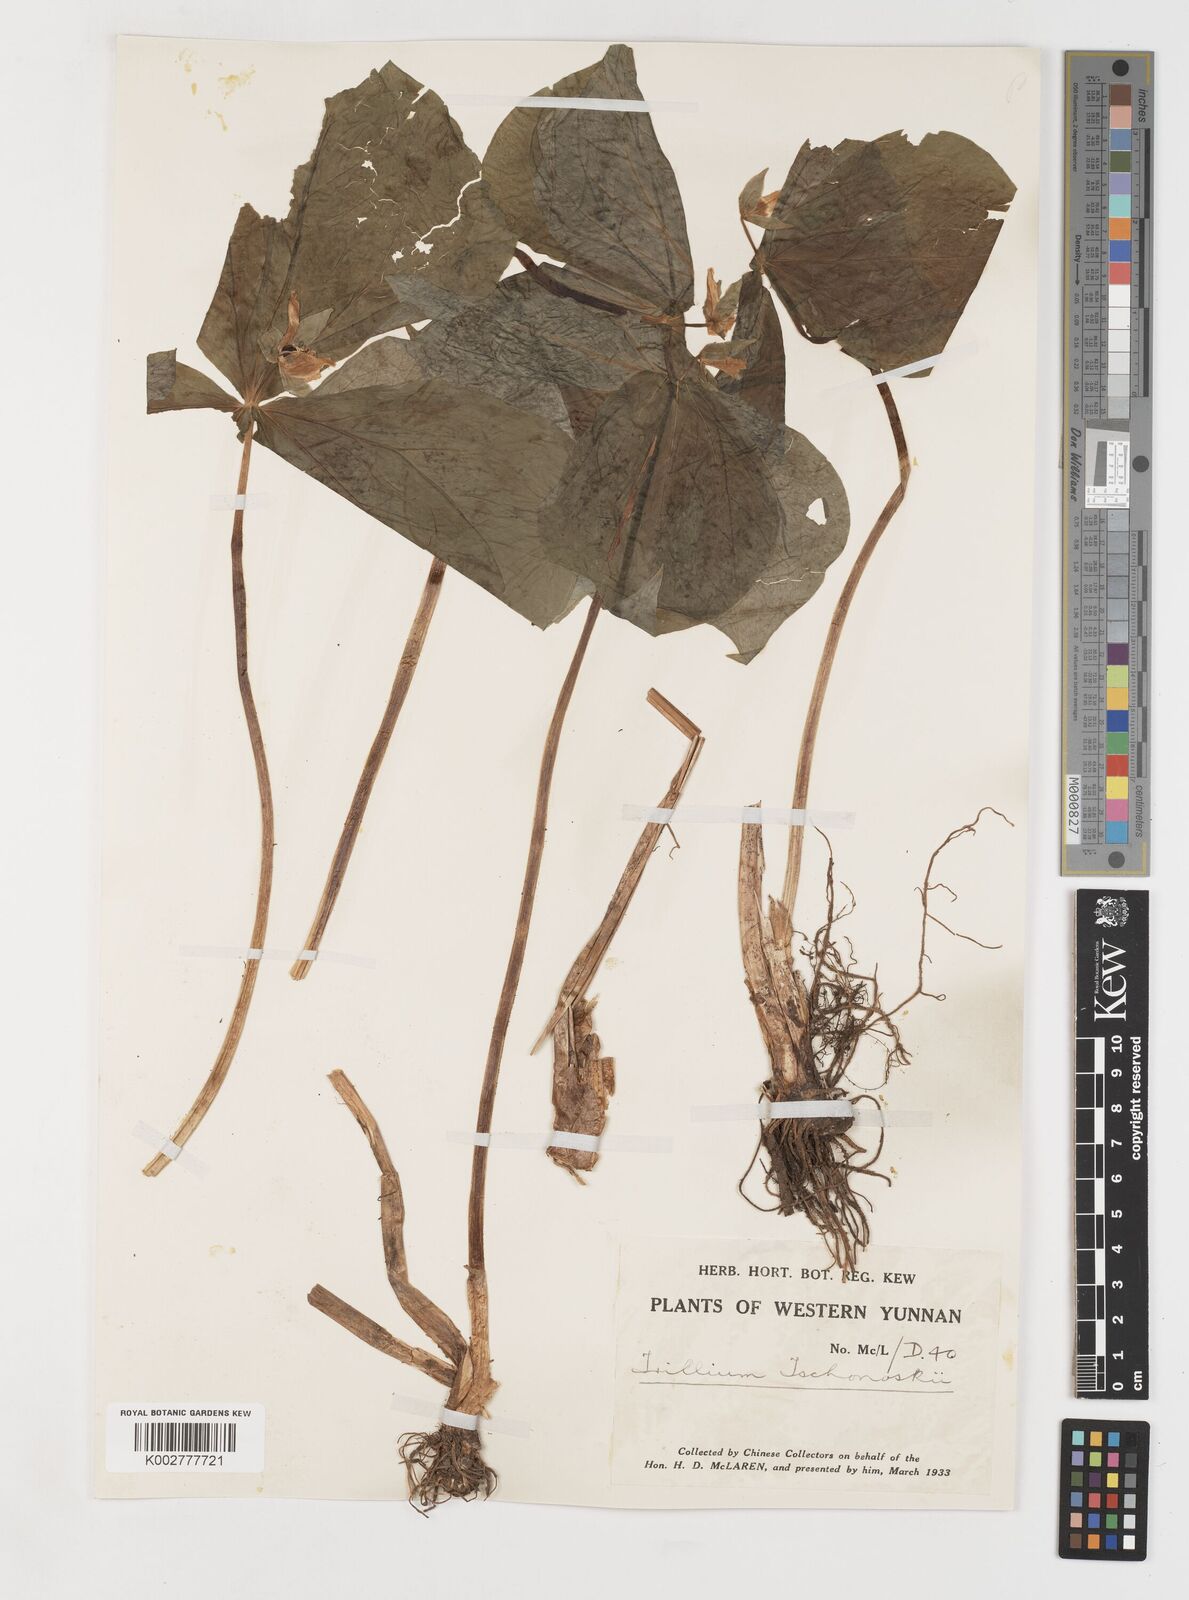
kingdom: Plantae
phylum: Tracheophyta
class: Liliopsida
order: Liliales
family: Melanthiaceae
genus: Trillium
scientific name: Trillium tschonoskii
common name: A pearl on head
